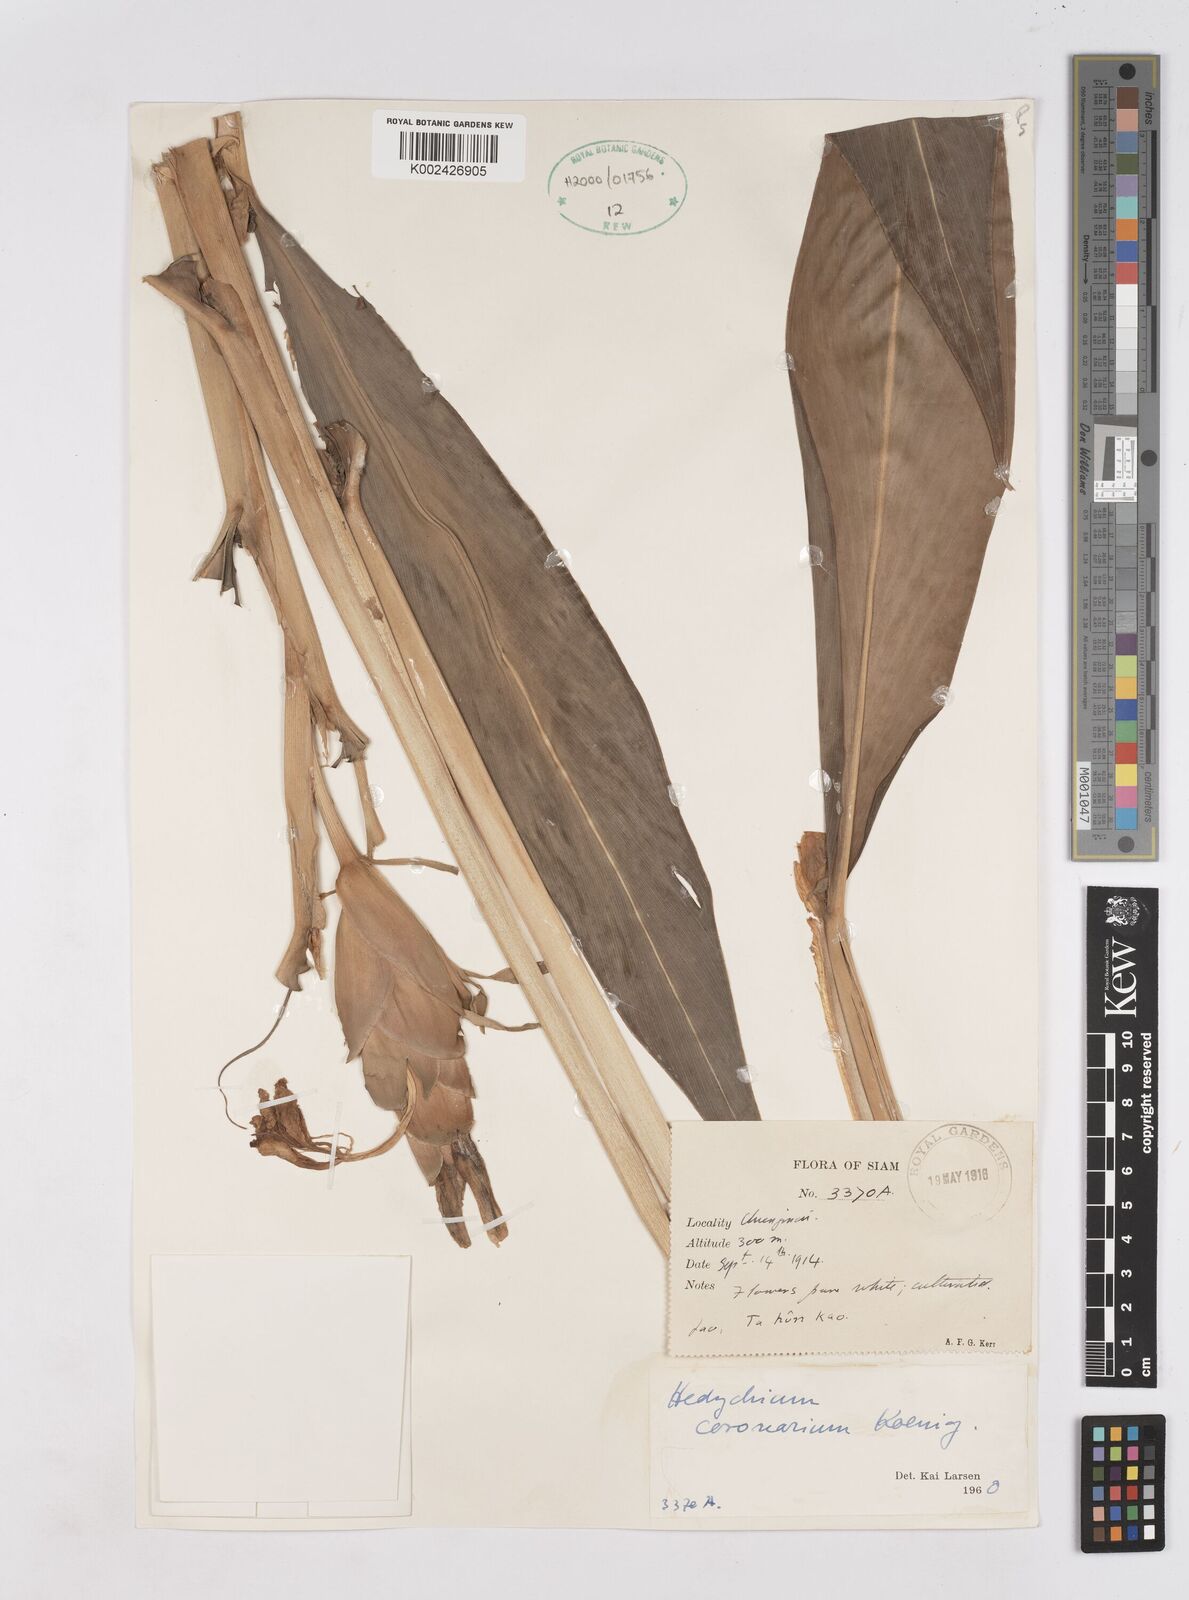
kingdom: Plantae
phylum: Tracheophyta
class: Liliopsida
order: Zingiberales
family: Zingiberaceae
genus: Hedychium
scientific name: Hedychium coronarium
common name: White garland-lily
